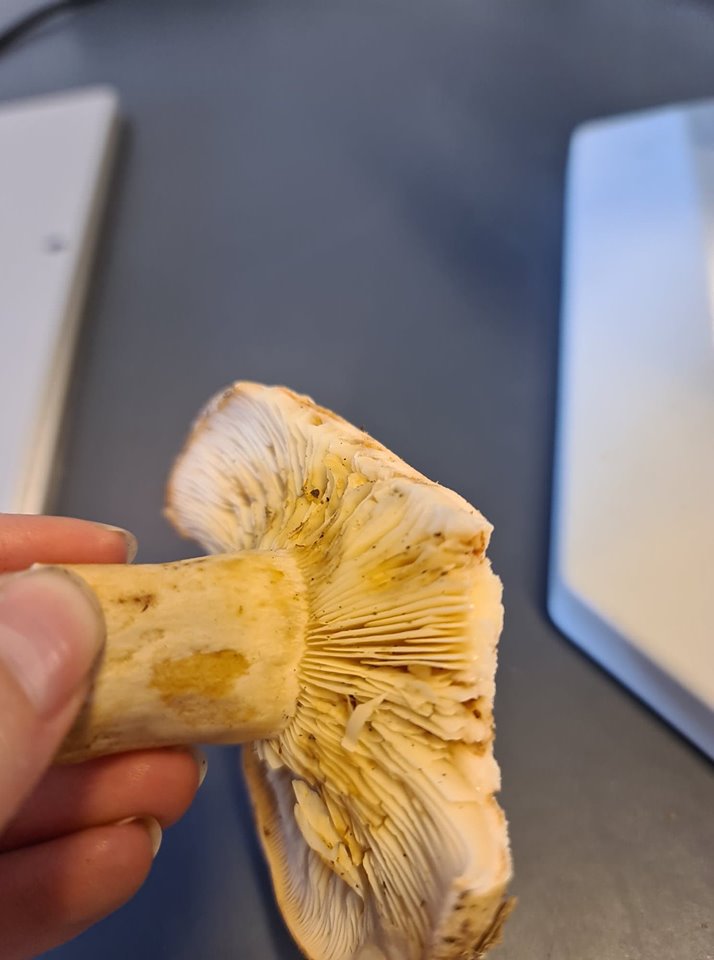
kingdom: Fungi
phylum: Basidiomycota
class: Agaricomycetes
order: Russulales
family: Russulaceae
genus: Lactarius
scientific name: Lactarius pallidus
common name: bleg mælkehat
